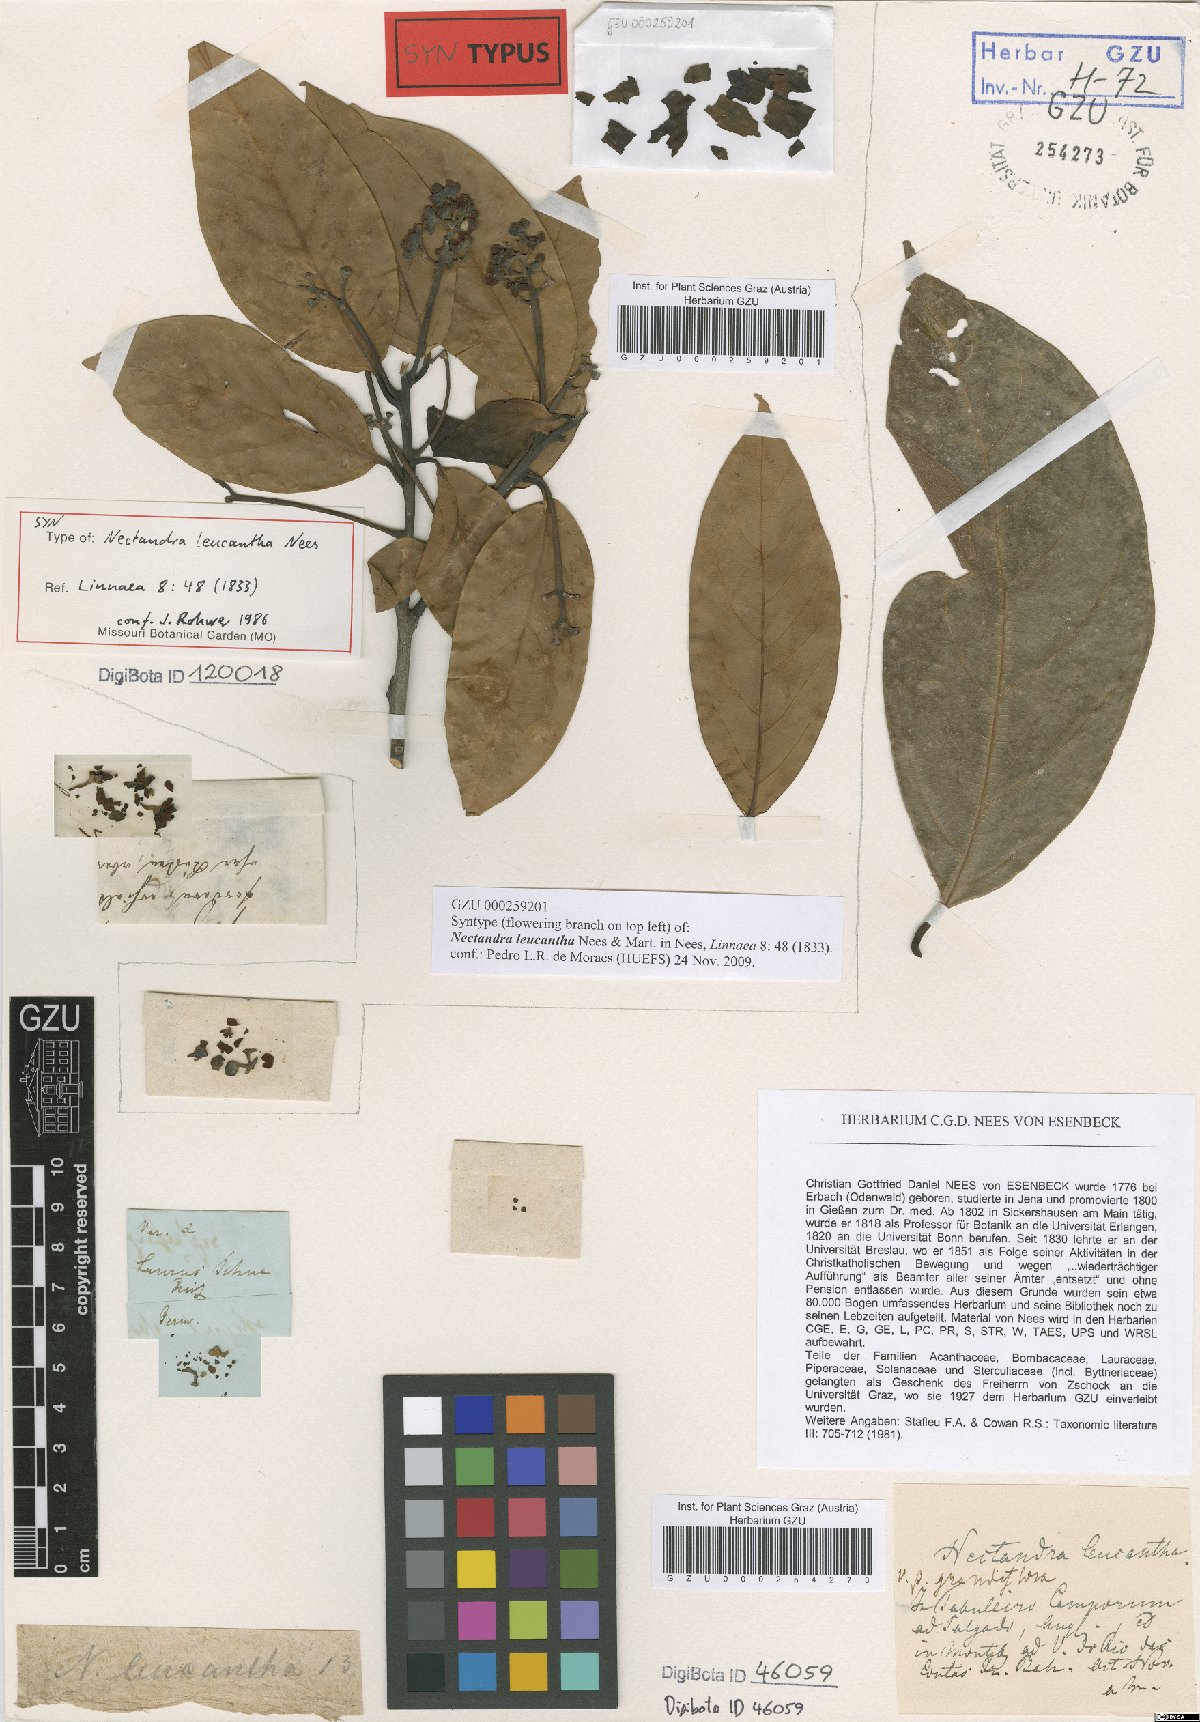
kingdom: Plantae
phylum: Tracheophyta
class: Magnoliopsida
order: Laurales
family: Lauraceae
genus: Nectandra
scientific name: Nectandra leucantha
